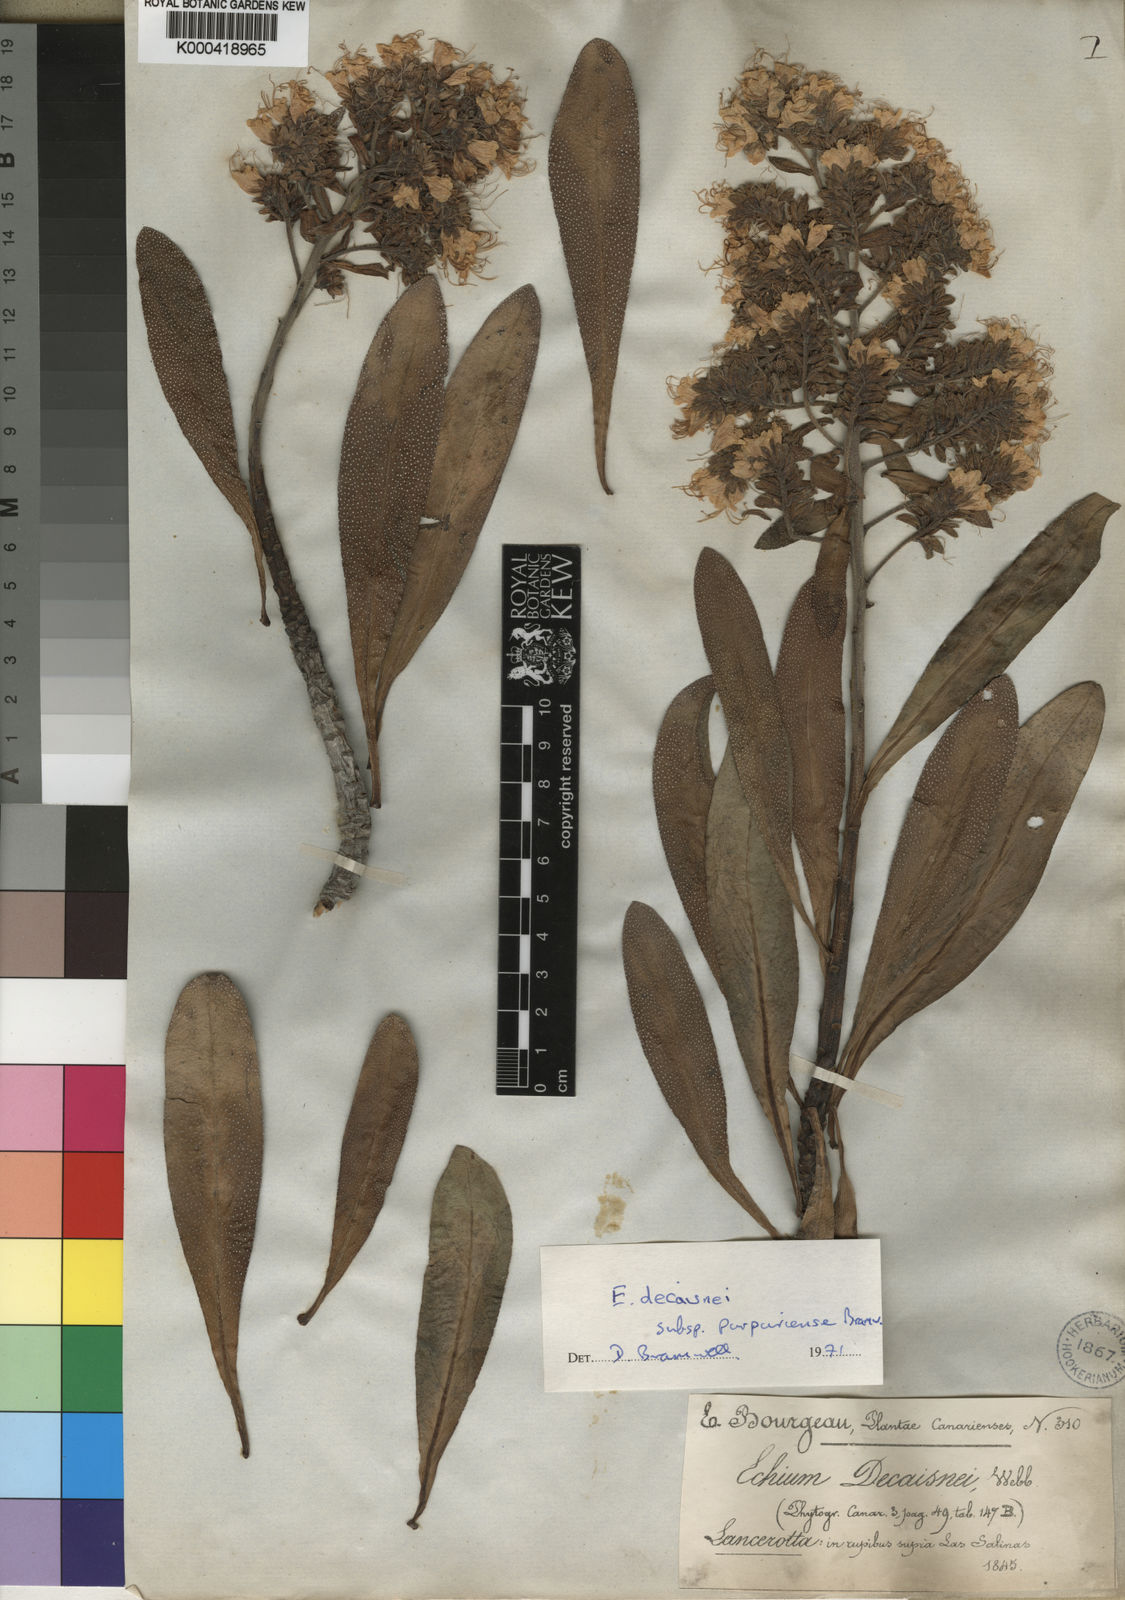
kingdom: Plantae
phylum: Tracheophyta
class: Magnoliopsida
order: Boraginales
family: Boraginaceae
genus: Echium
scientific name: Echium famarae
